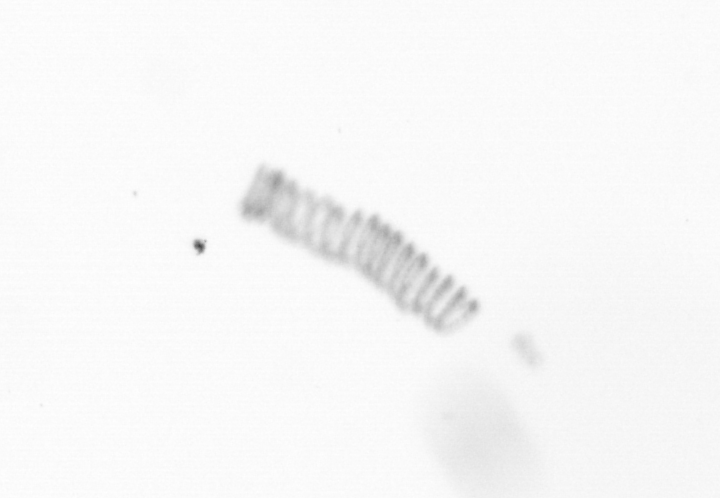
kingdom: Chromista
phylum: Ochrophyta
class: Bacillariophyceae
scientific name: Bacillariophyceae
